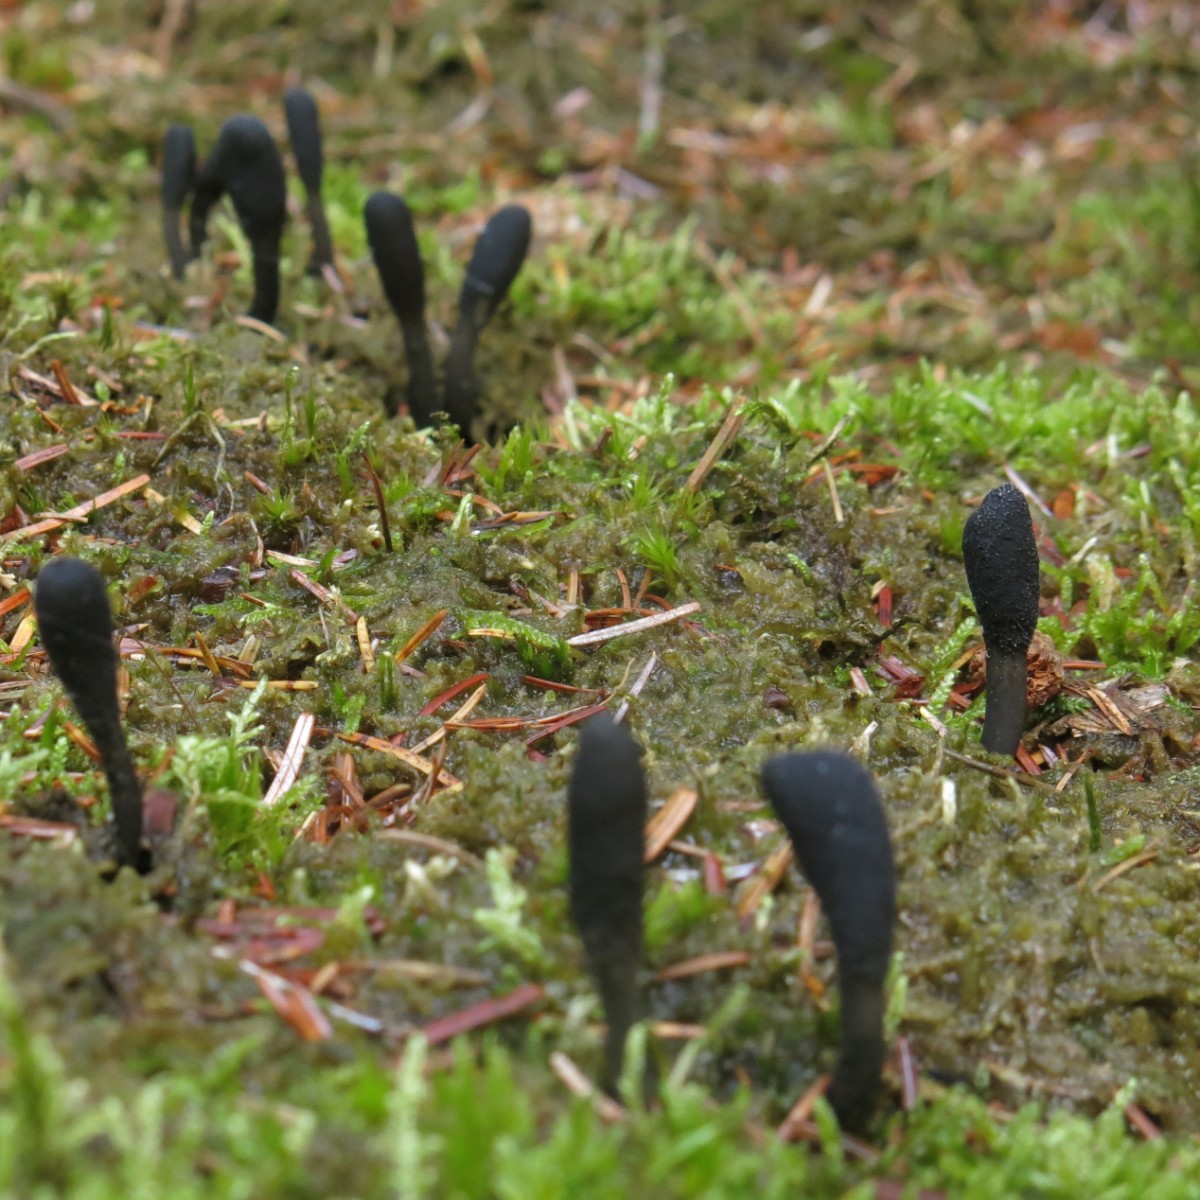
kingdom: Fungi
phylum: Ascomycota
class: Sordariomycetes
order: Hypocreales
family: Ophiocordycipitaceae
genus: Tolypocladium
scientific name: Tolypocladium ophioglossoides
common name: slank snyltekølle
